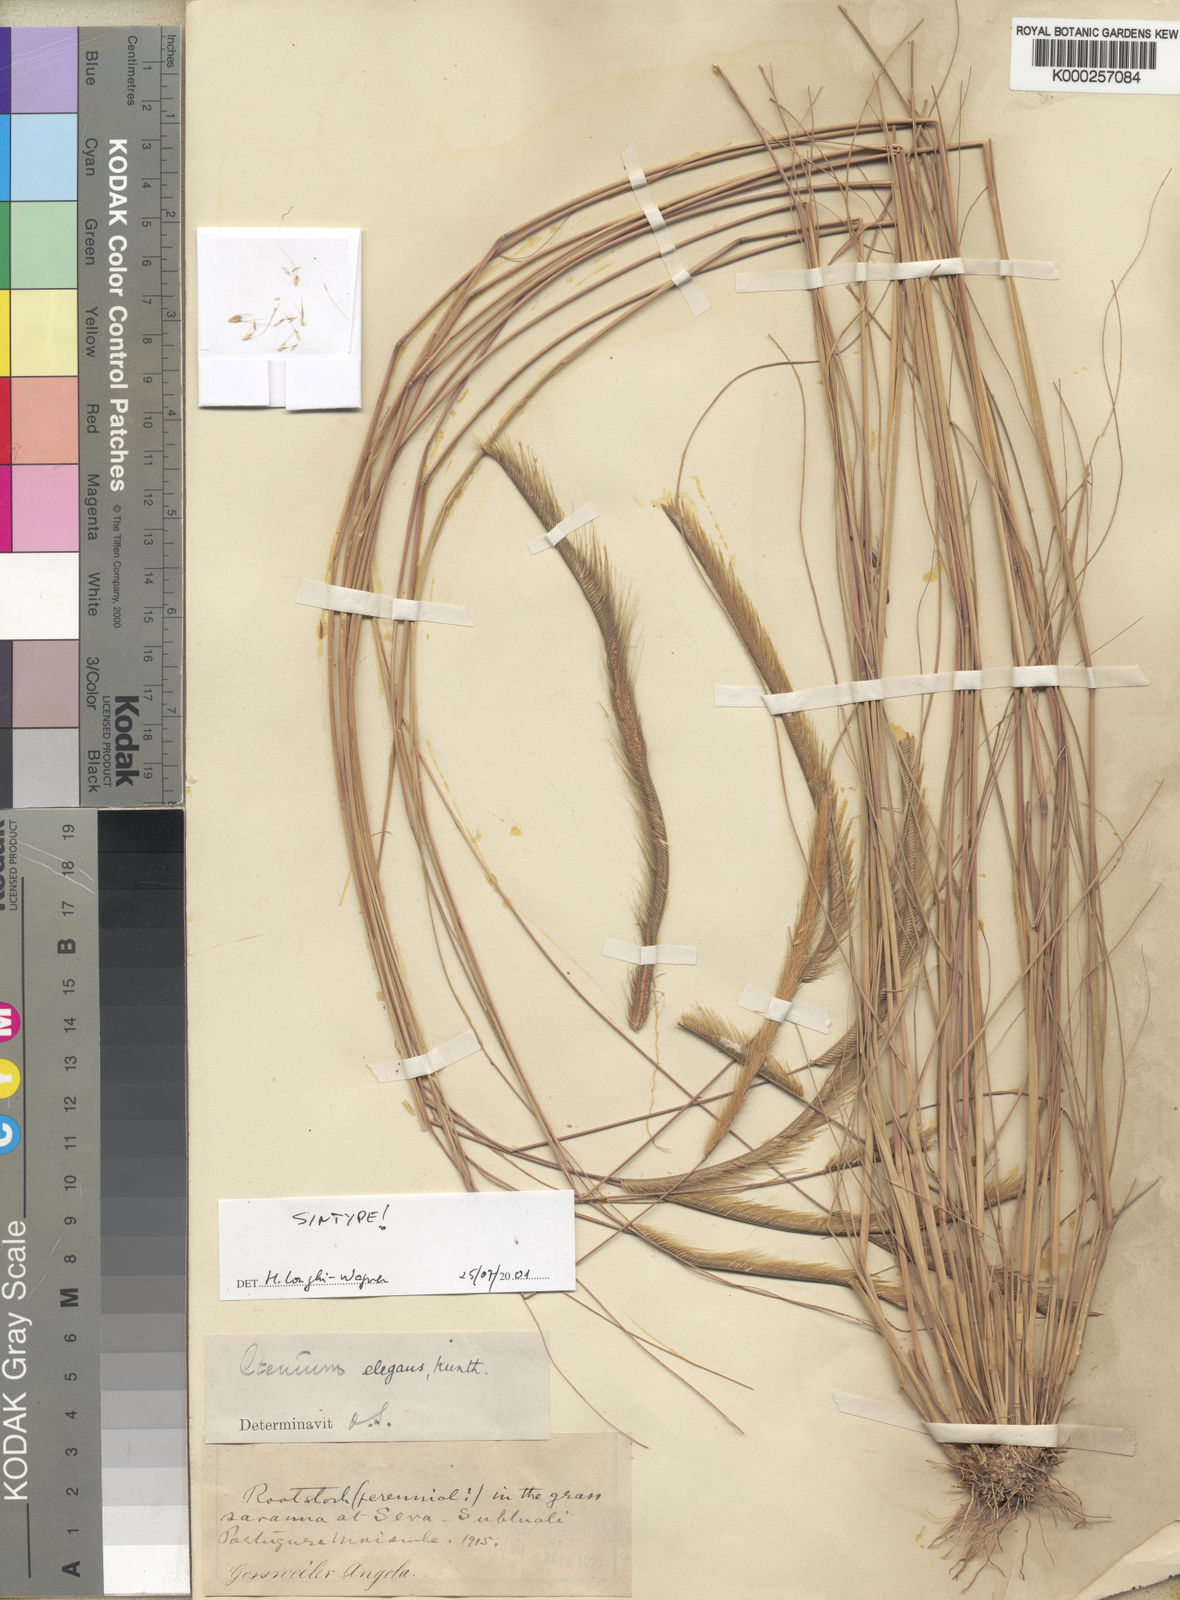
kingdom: Plantae
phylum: Tracheophyta
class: Liliopsida
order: Poales
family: Poaceae
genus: Ctenium
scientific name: Ctenium newtonii
